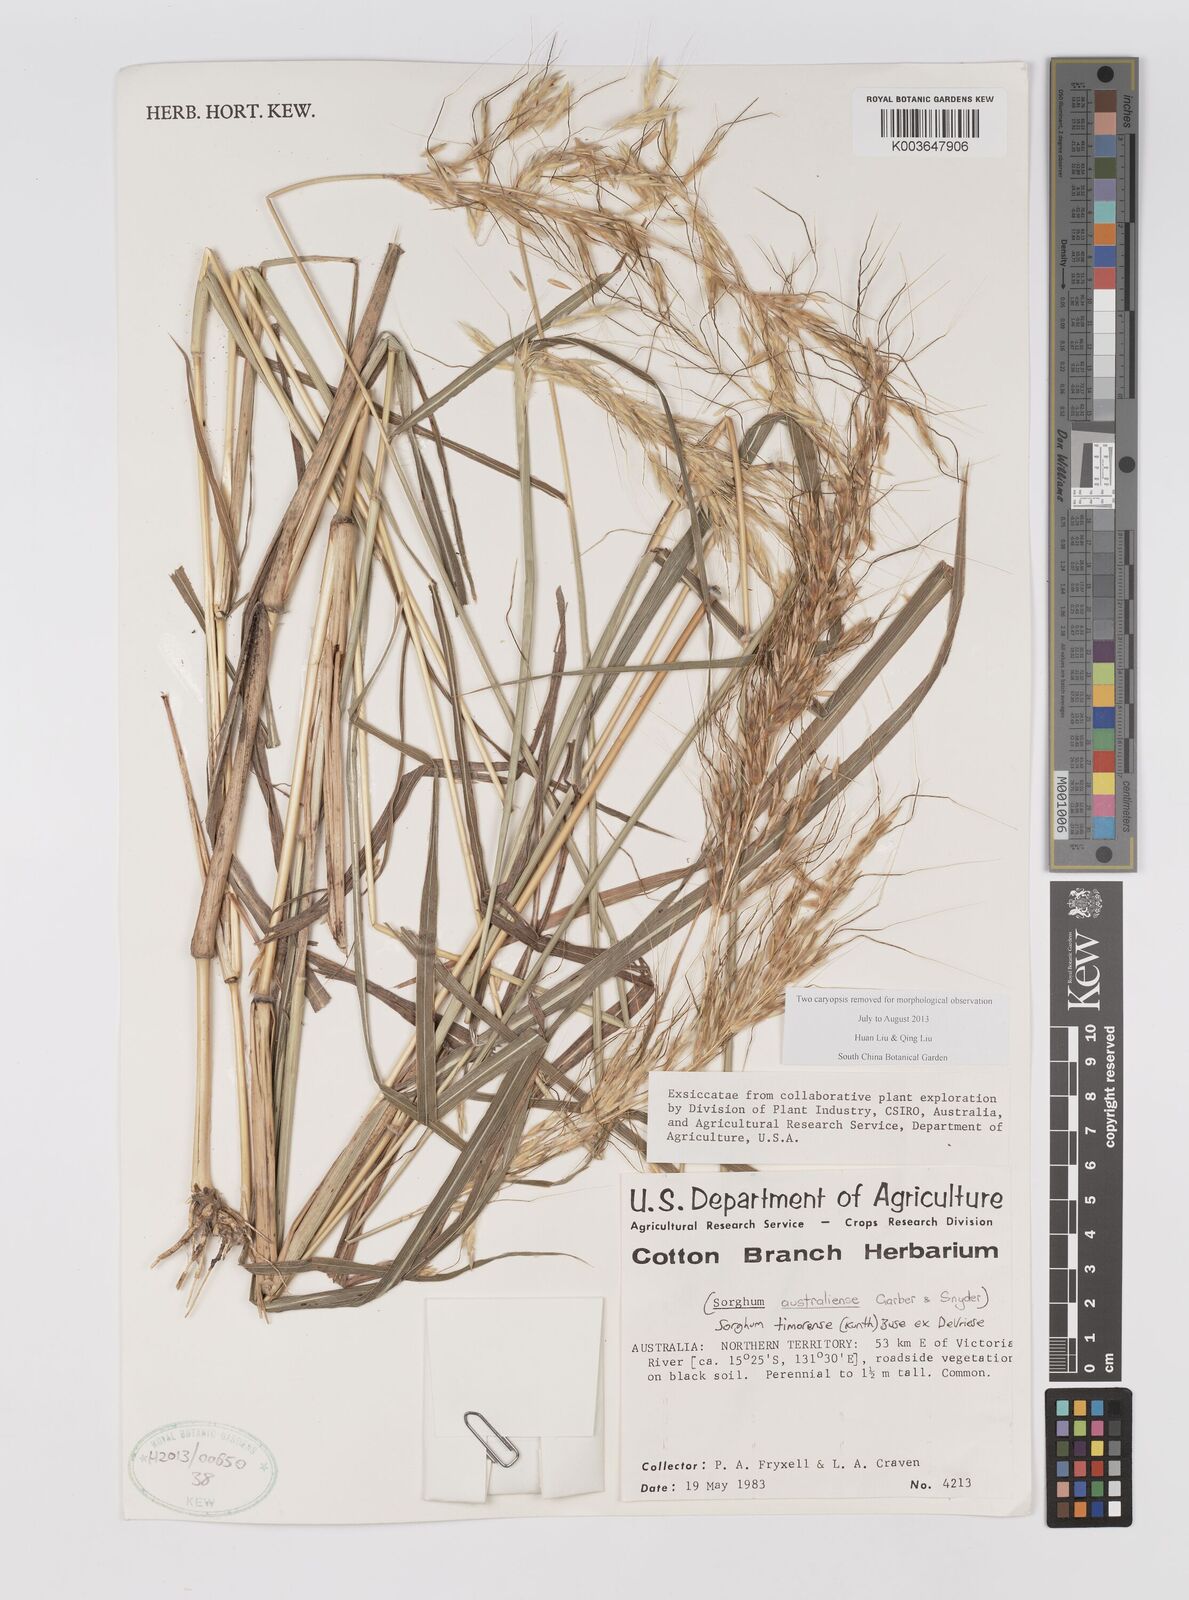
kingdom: Plantae
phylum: Tracheophyta
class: Liliopsida
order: Poales
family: Poaceae
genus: Sarga
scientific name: Sarga timorensis
